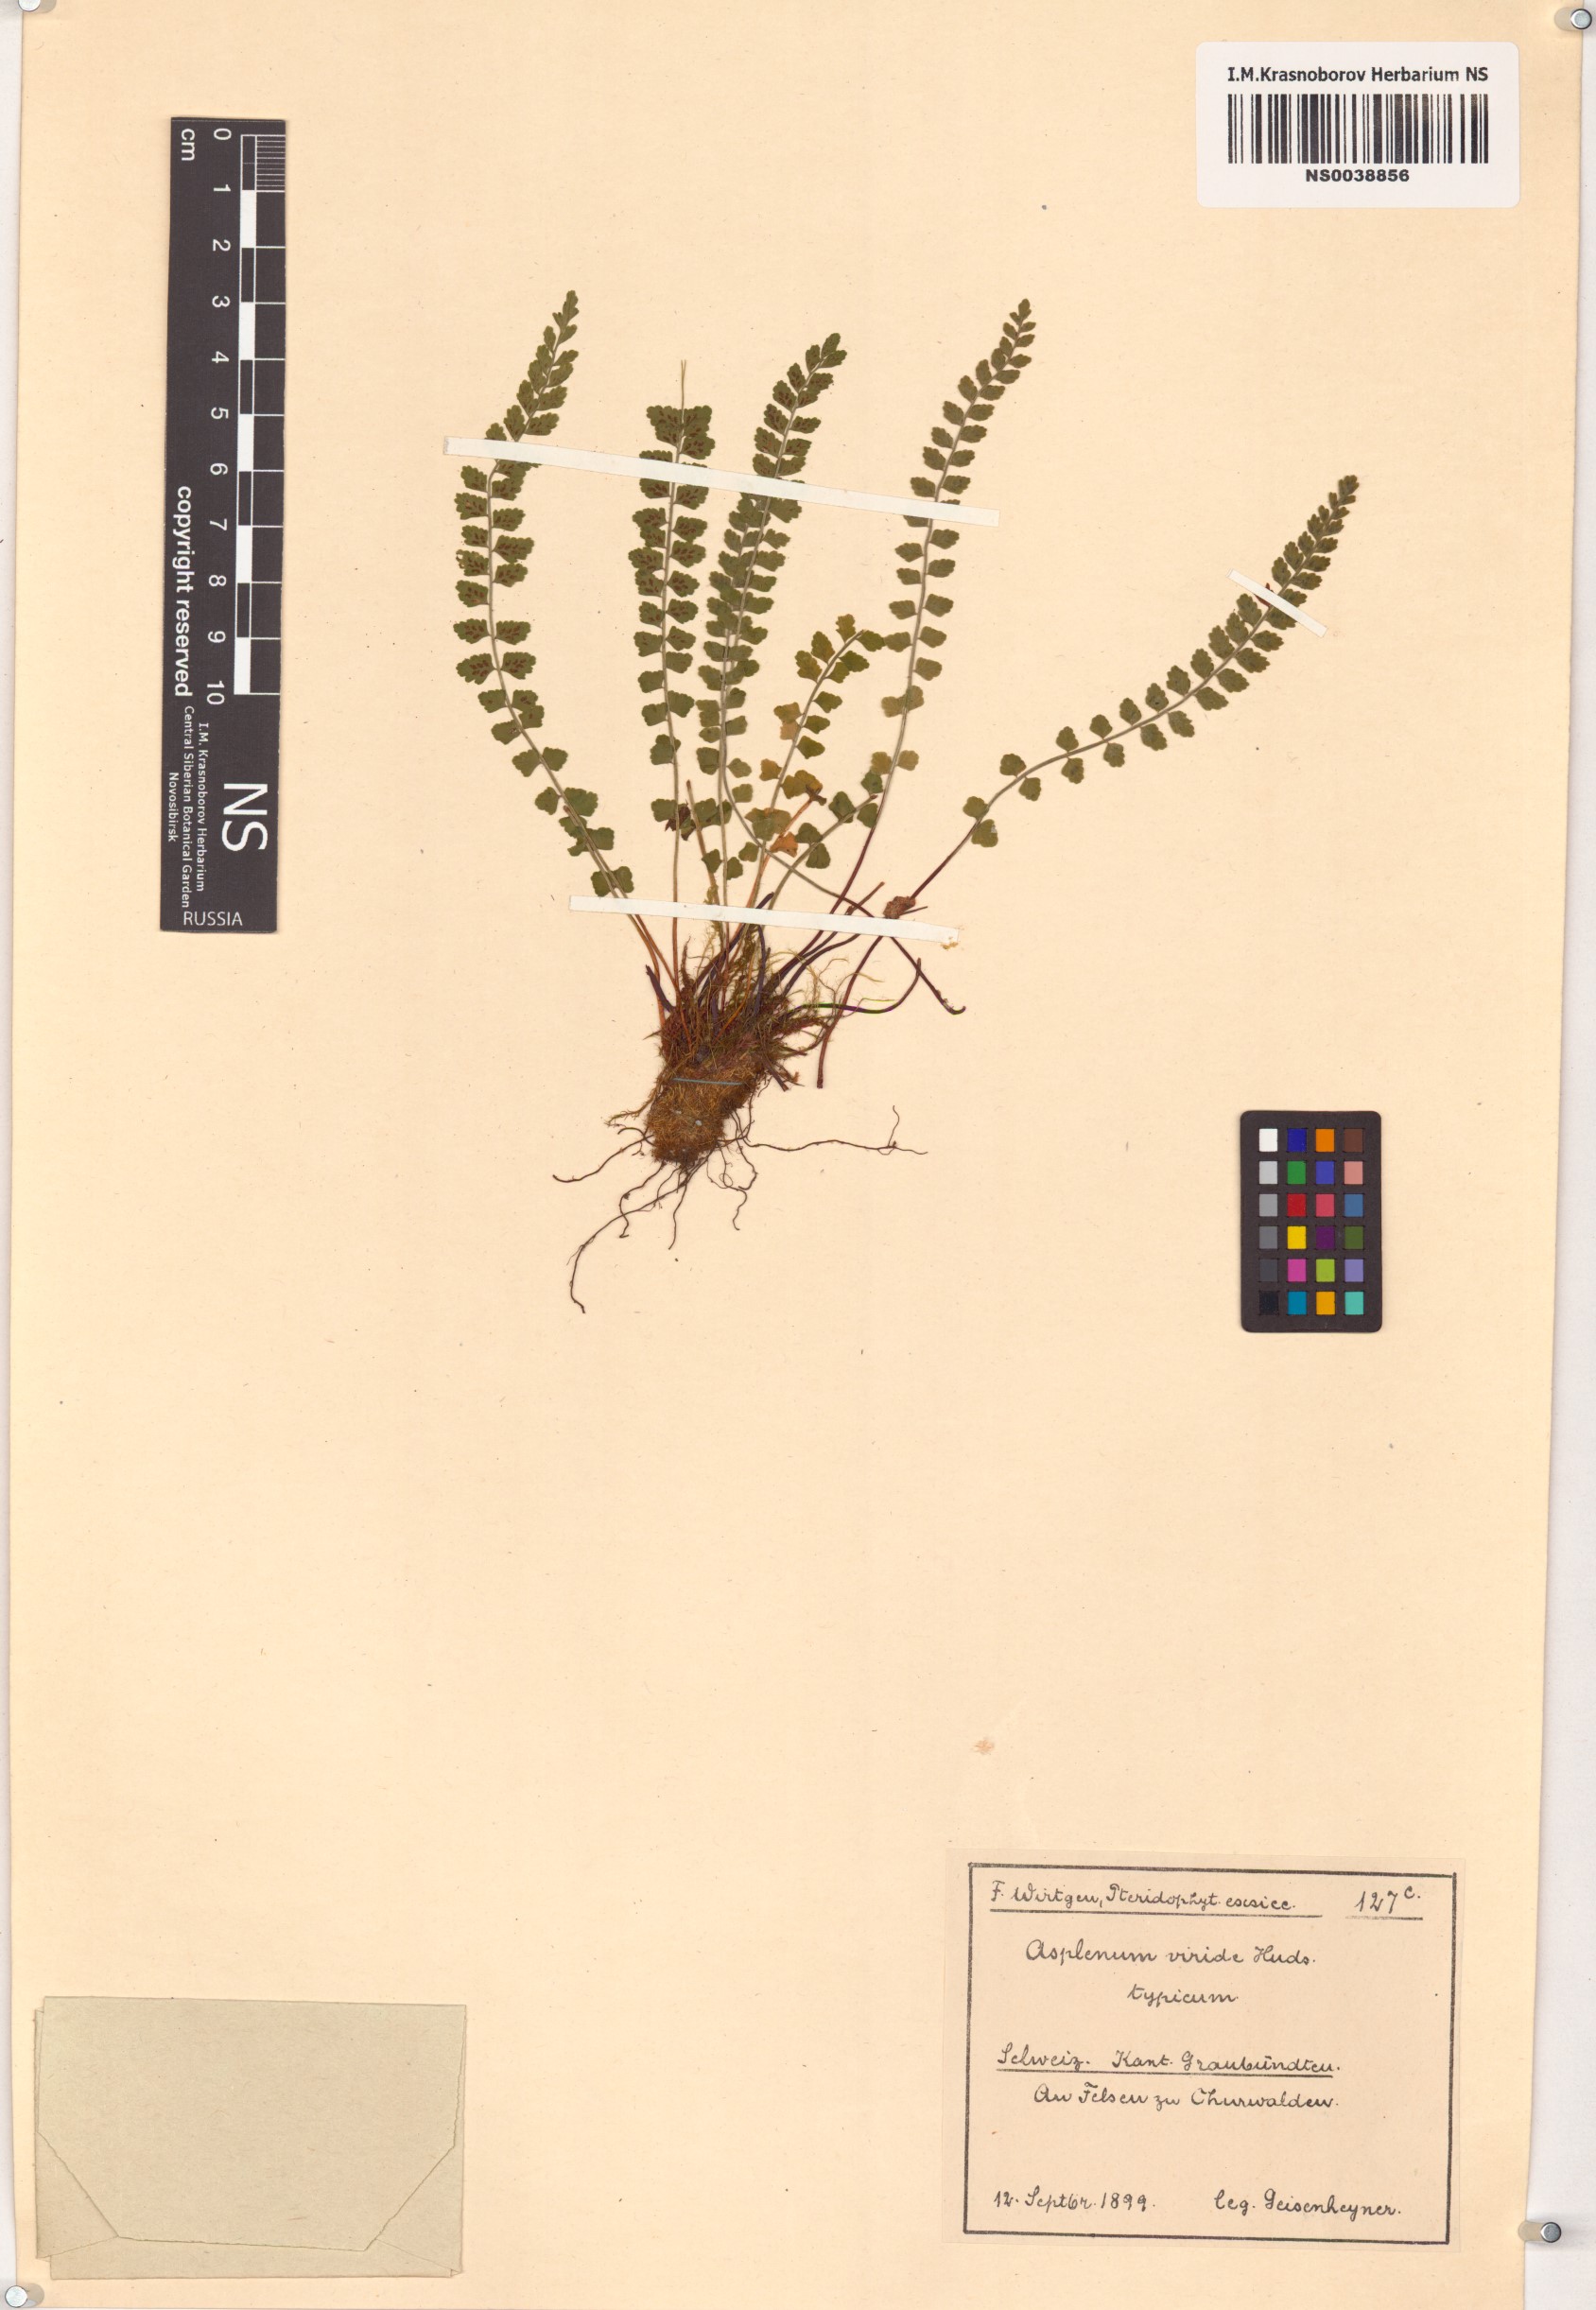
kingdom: Plantae
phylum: Tracheophyta
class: Polypodiopsida
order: Polypodiales
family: Aspleniaceae
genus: Asplenium
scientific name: Asplenium viride
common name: Green spleenwort
